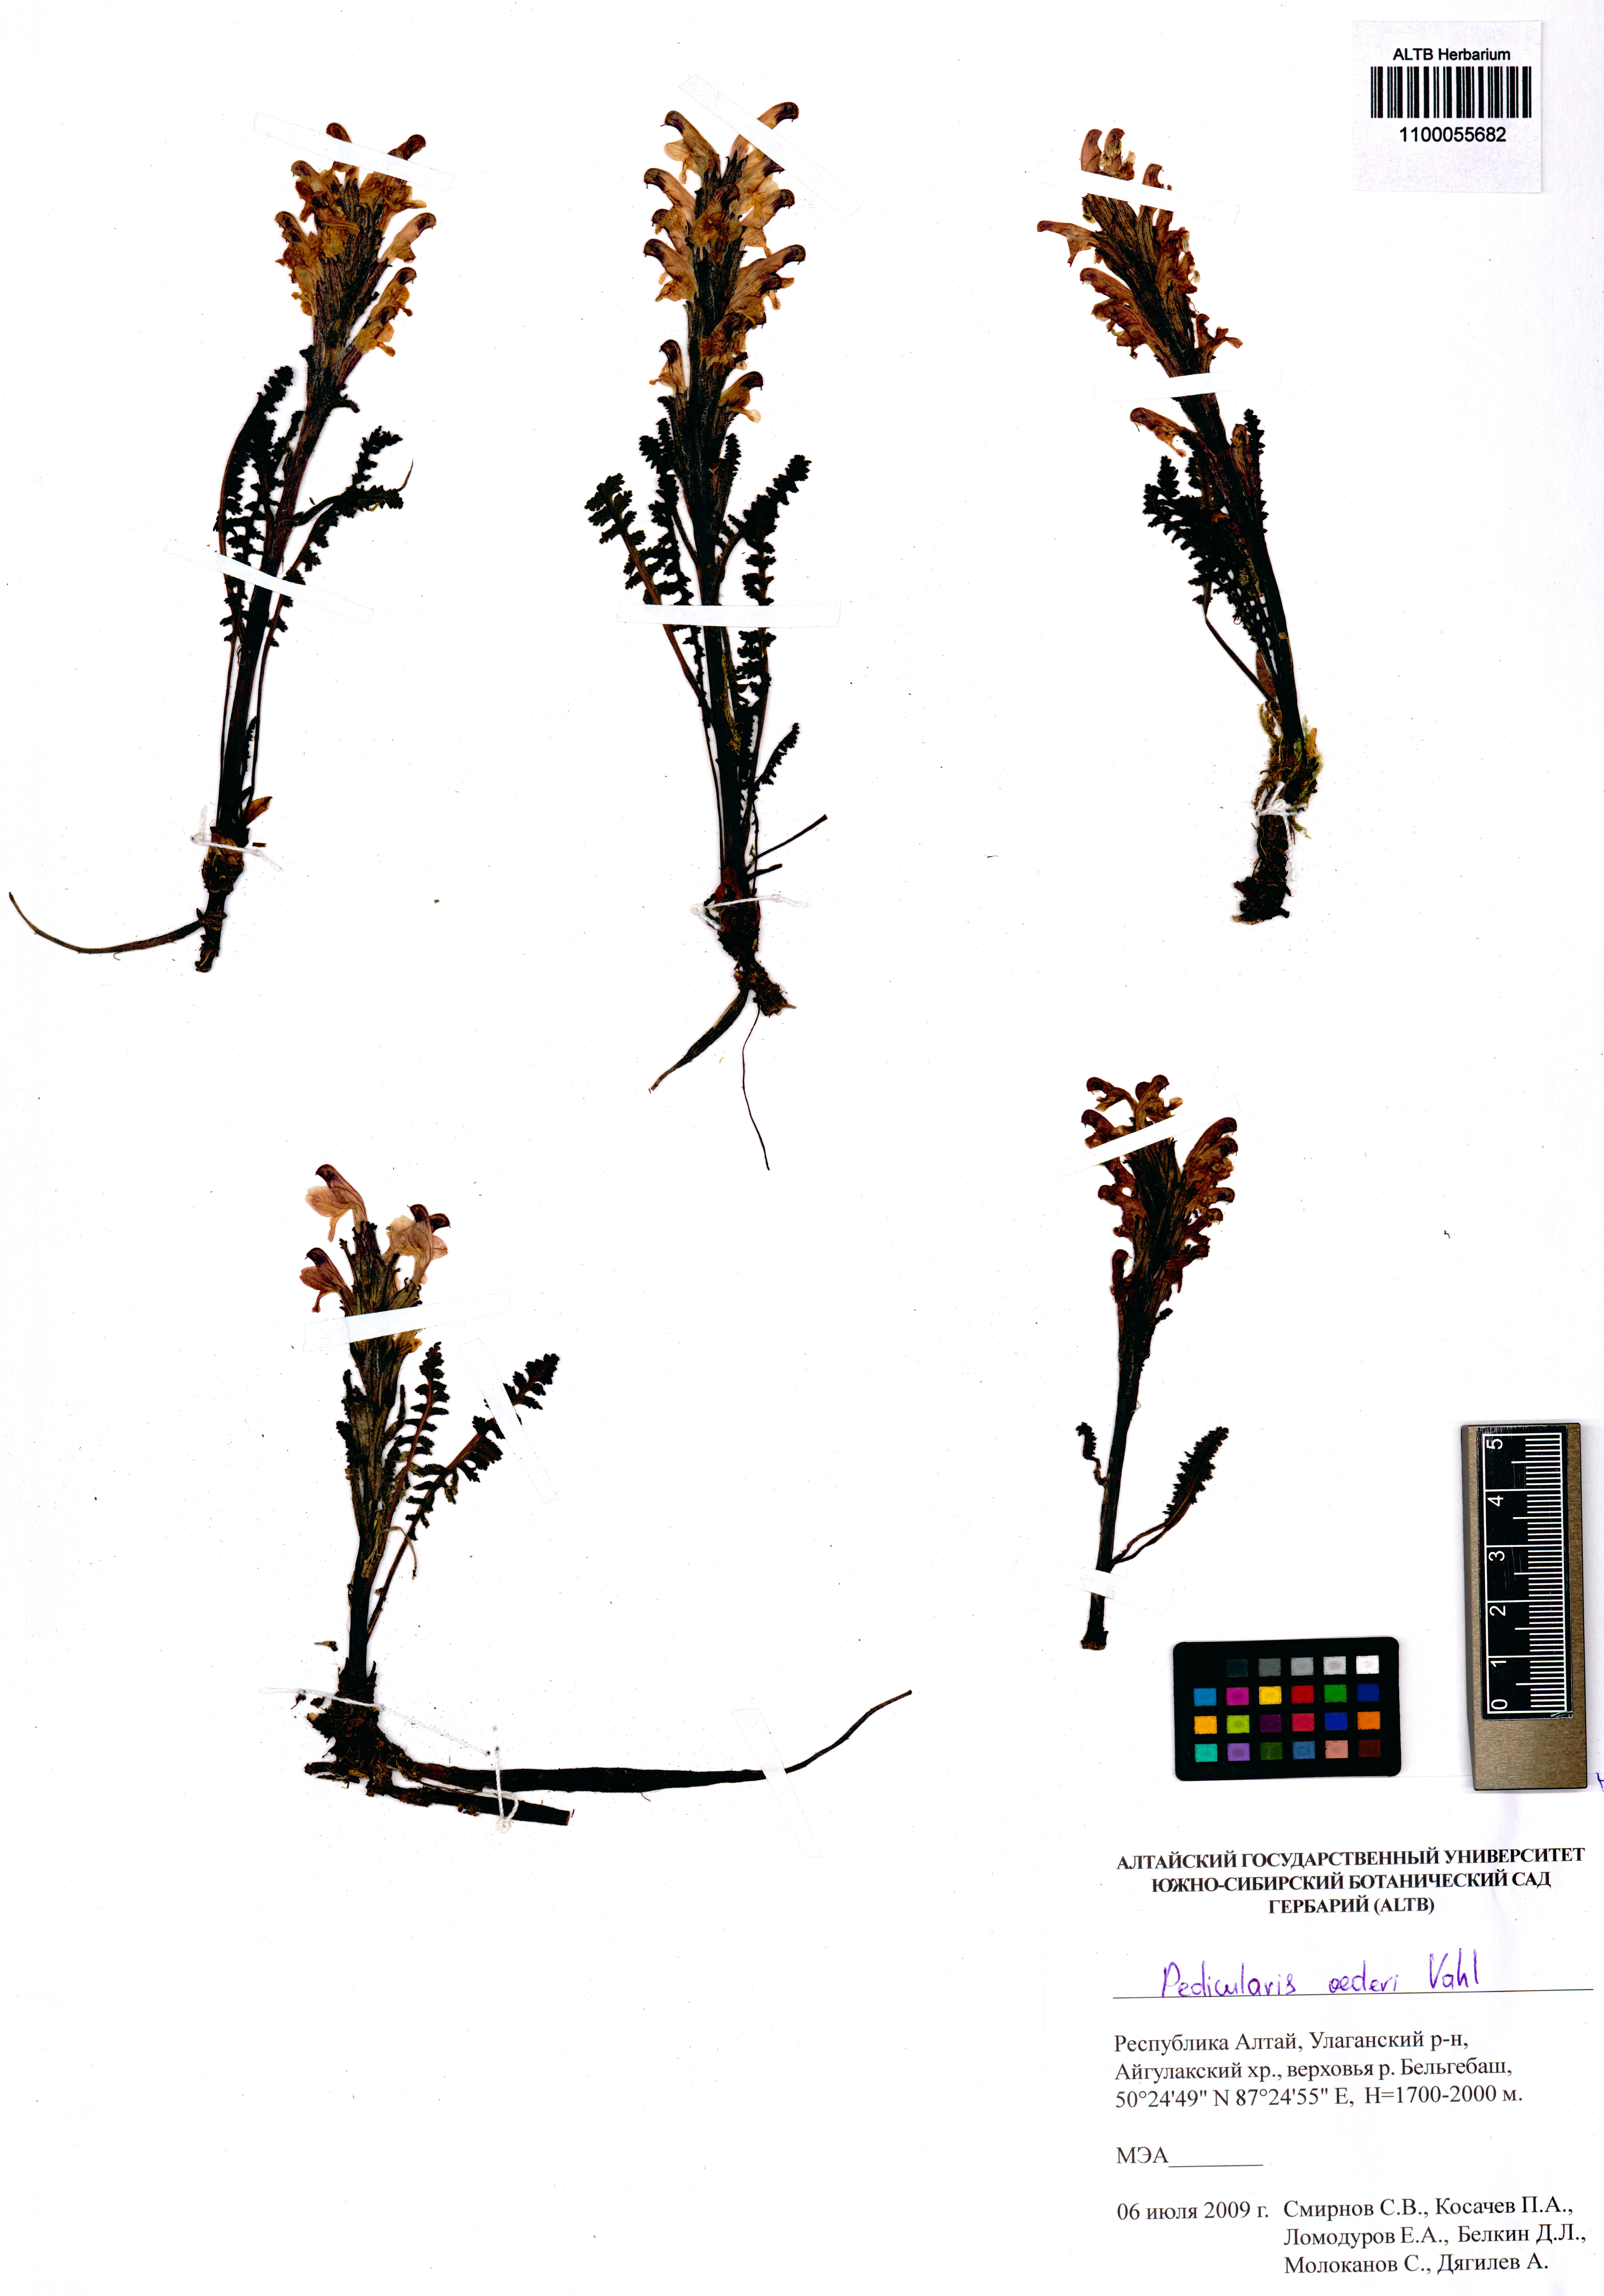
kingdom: Plantae
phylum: Tracheophyta
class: Magnoliopsida
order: Lamiales
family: Orobanchaceae
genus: Pedicularis
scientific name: Pedicularis oederi
